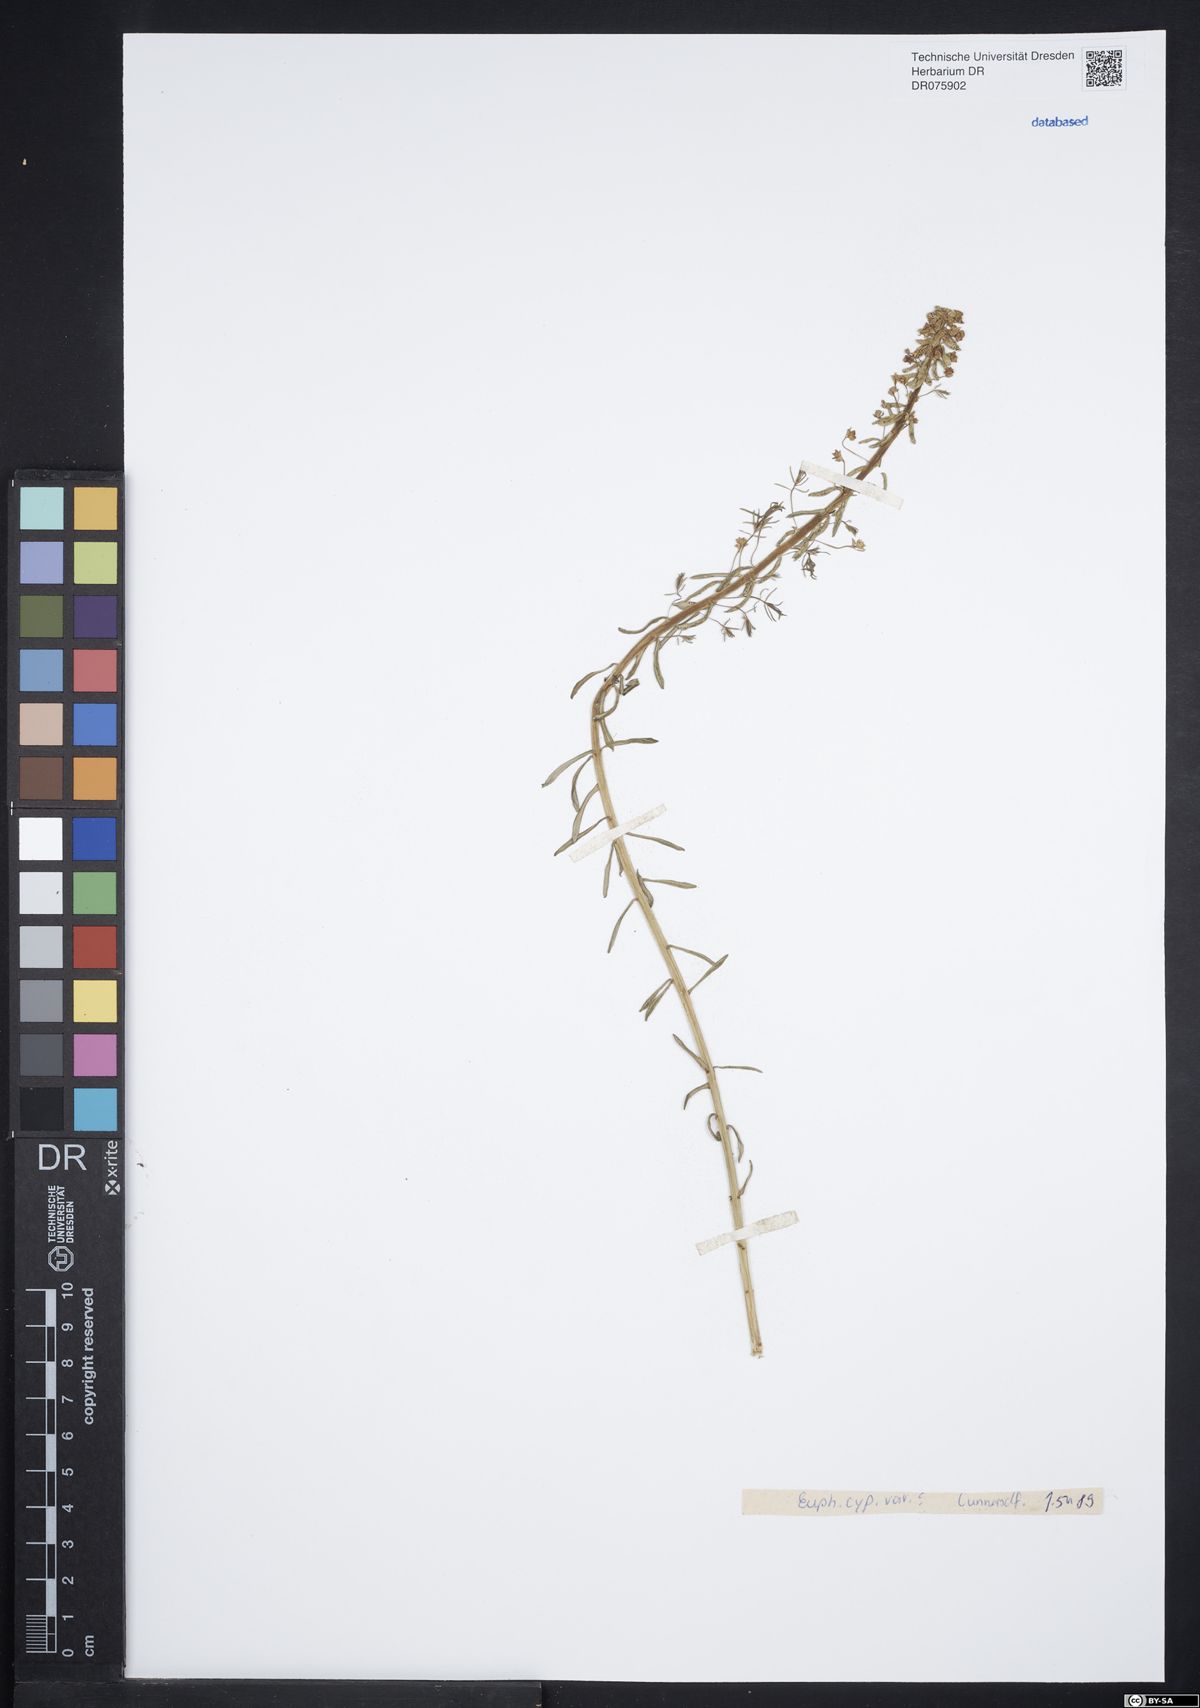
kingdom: Plantae
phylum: Tracheophyta
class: Magnoliopsida
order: Malpighiales
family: Euphorbiaceae
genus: Euphorbia
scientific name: Euphorbia cyparissias
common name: Cypress spurge
